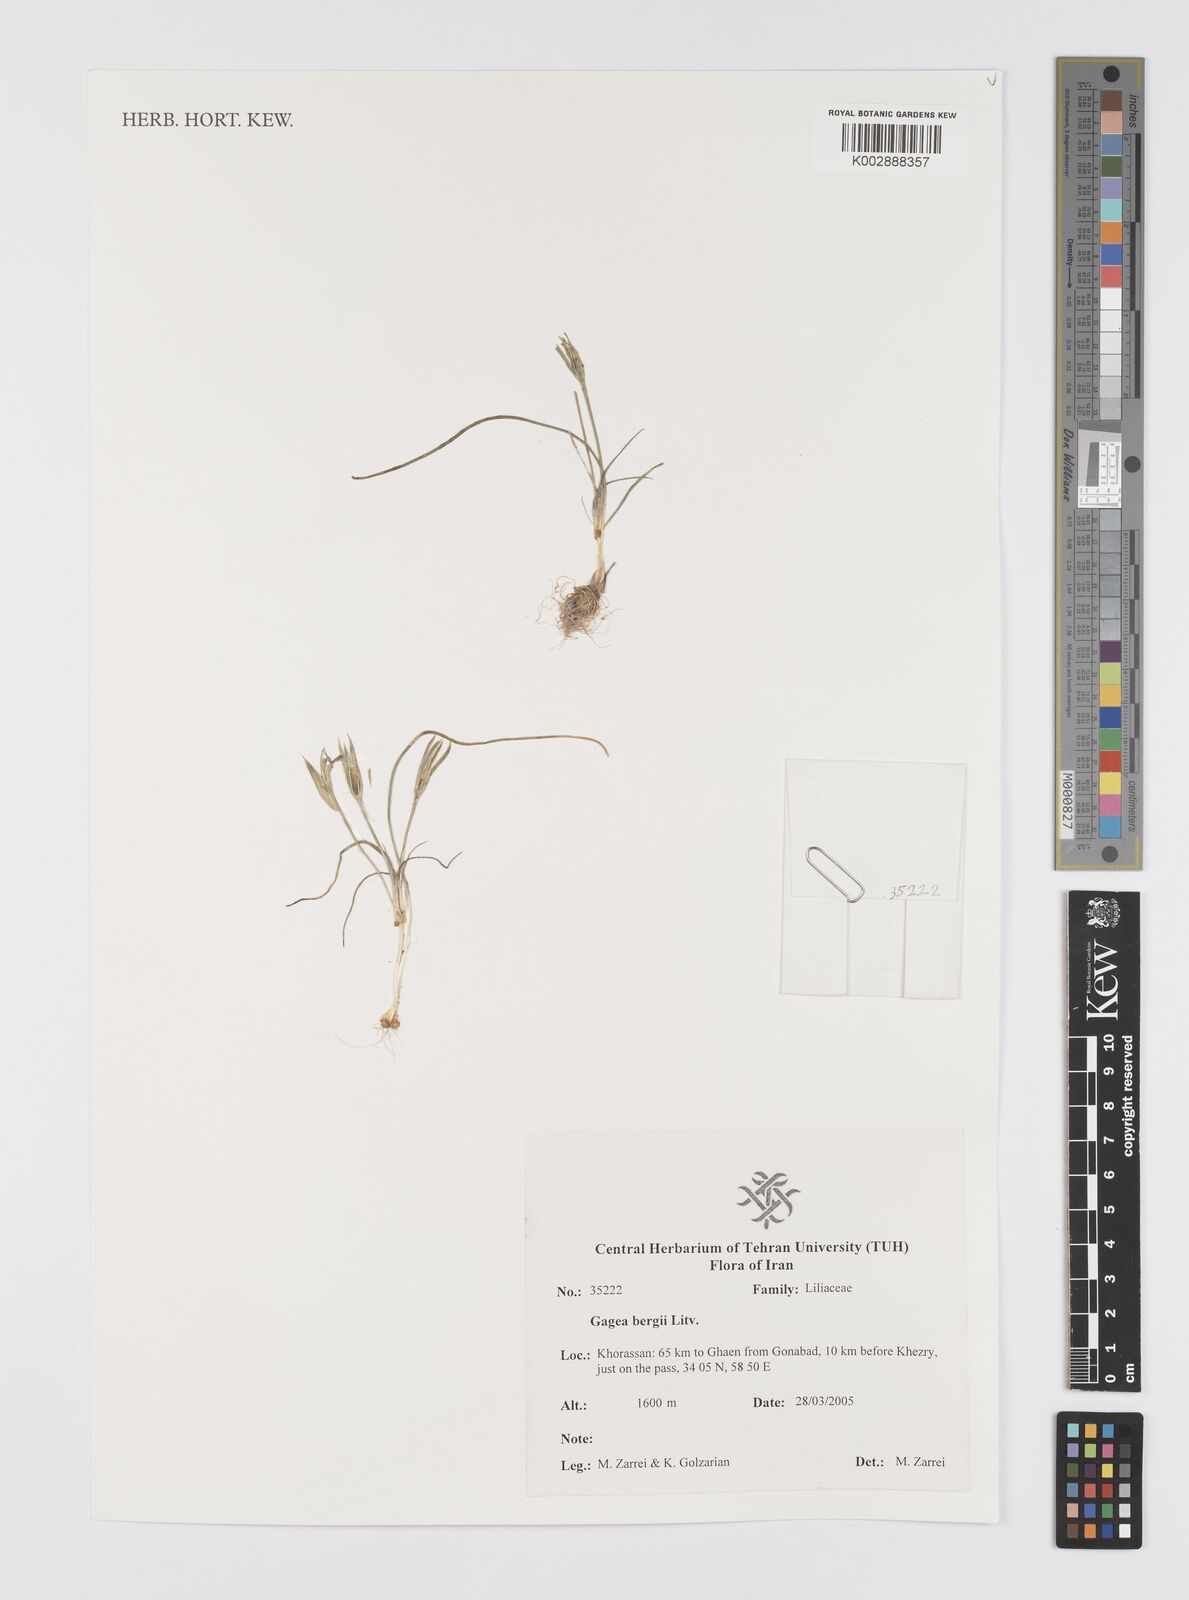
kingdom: Plantae
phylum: Tracheophyta
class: Liliopsida
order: Liliales
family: Liliaceae
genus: Gagea
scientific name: Gagea bergii
